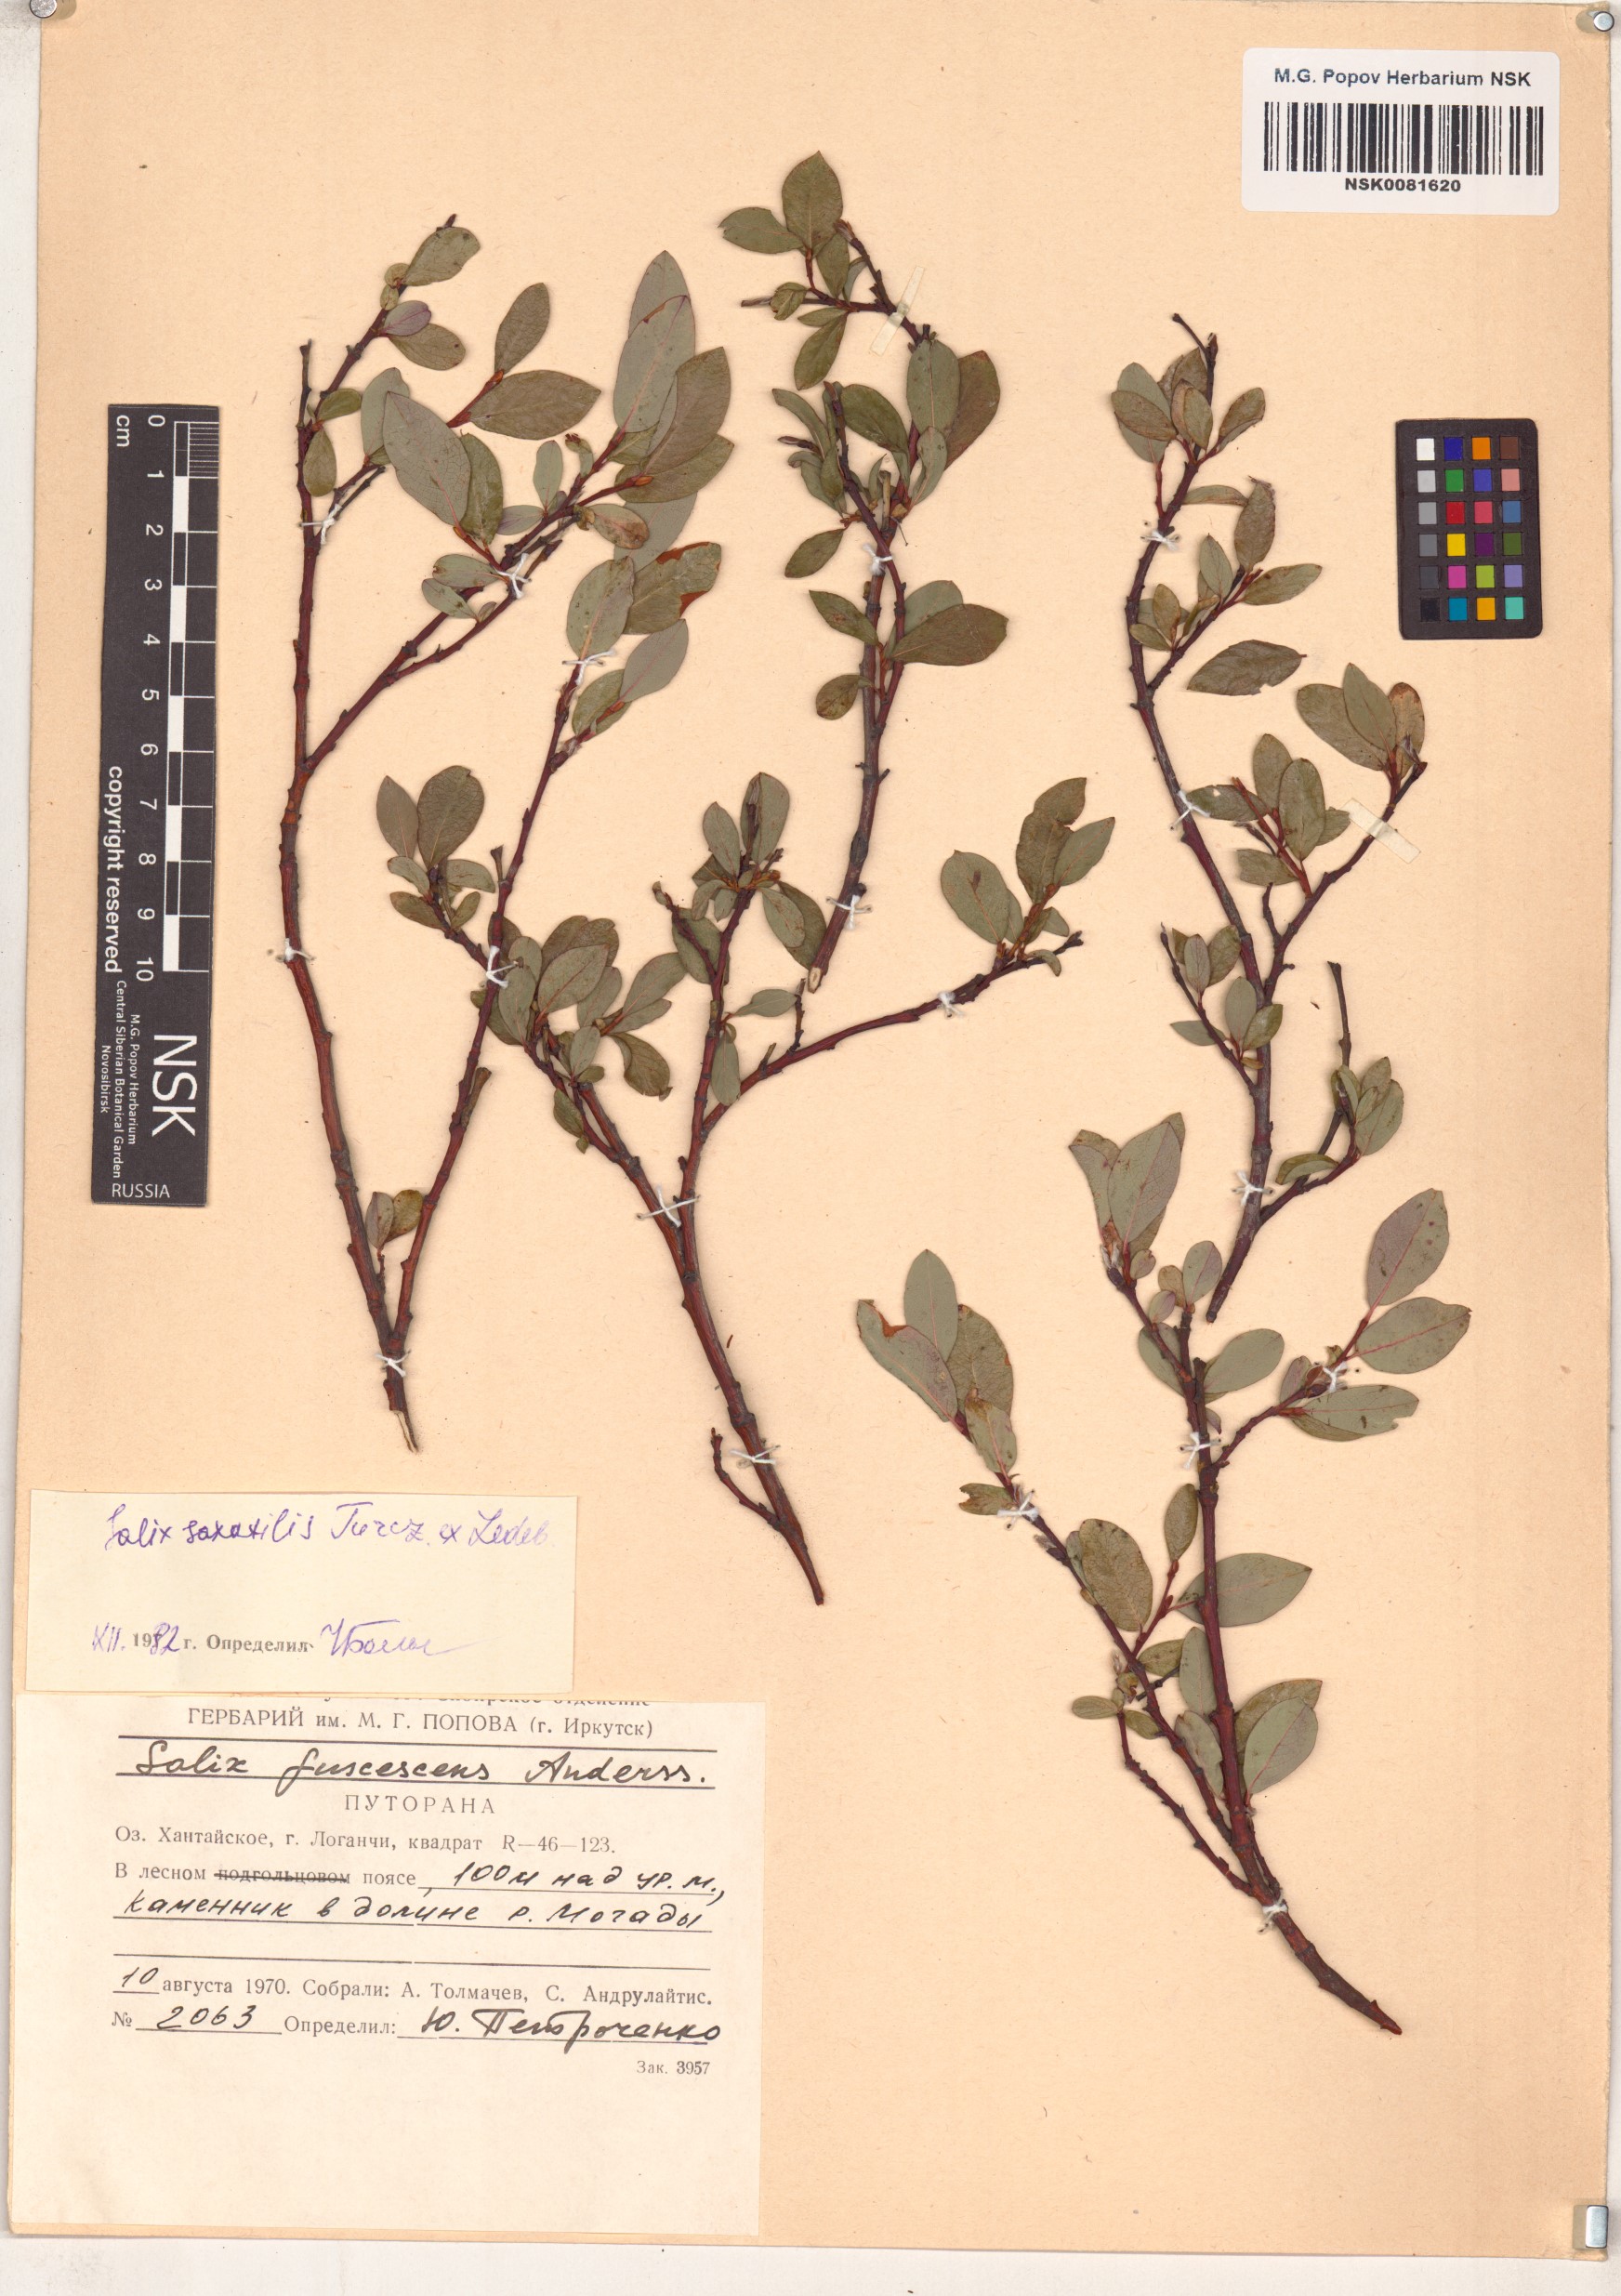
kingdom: Plantae
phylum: Tracheophyta
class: Magnoliopsida
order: Malpighiales
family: Salicaceae
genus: Salix
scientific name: Salix saxatilis
